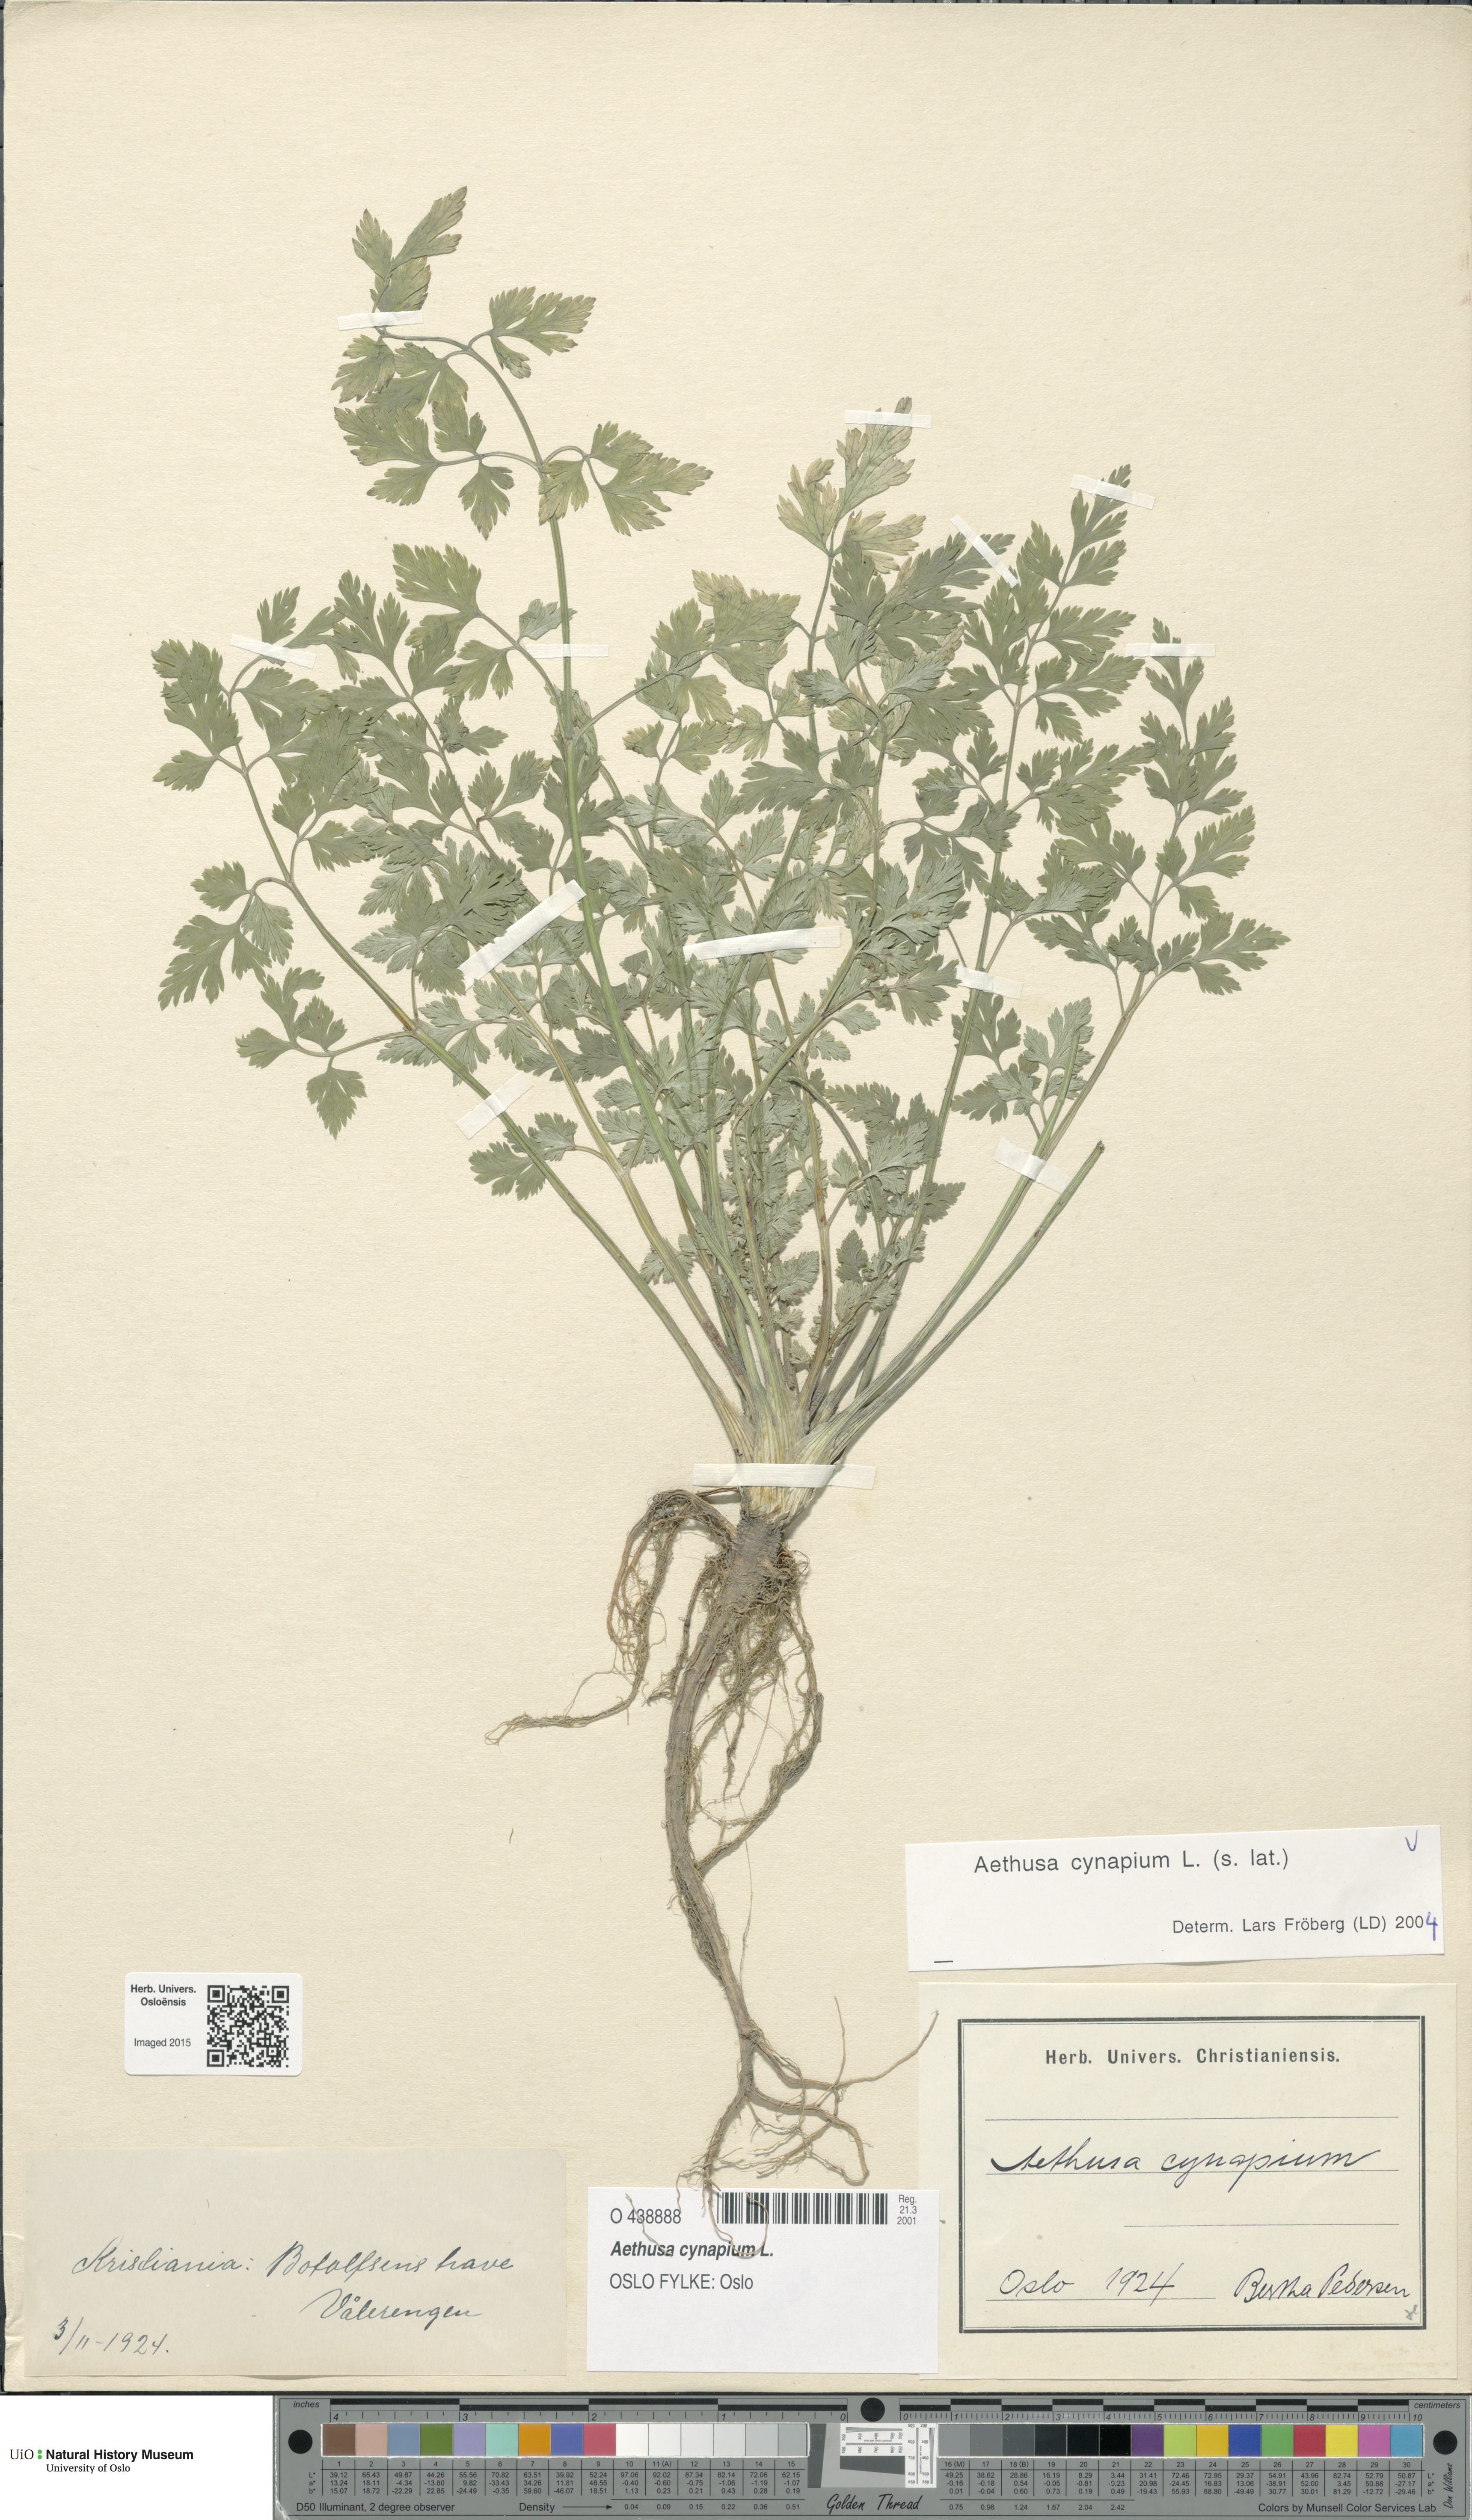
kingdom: Plantae
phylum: Tracheophyta
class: Magnoliopsida
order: Apiales
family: Apiaceae
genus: Aethusa
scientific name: Aethusa cynapium
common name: Fool's parsley
